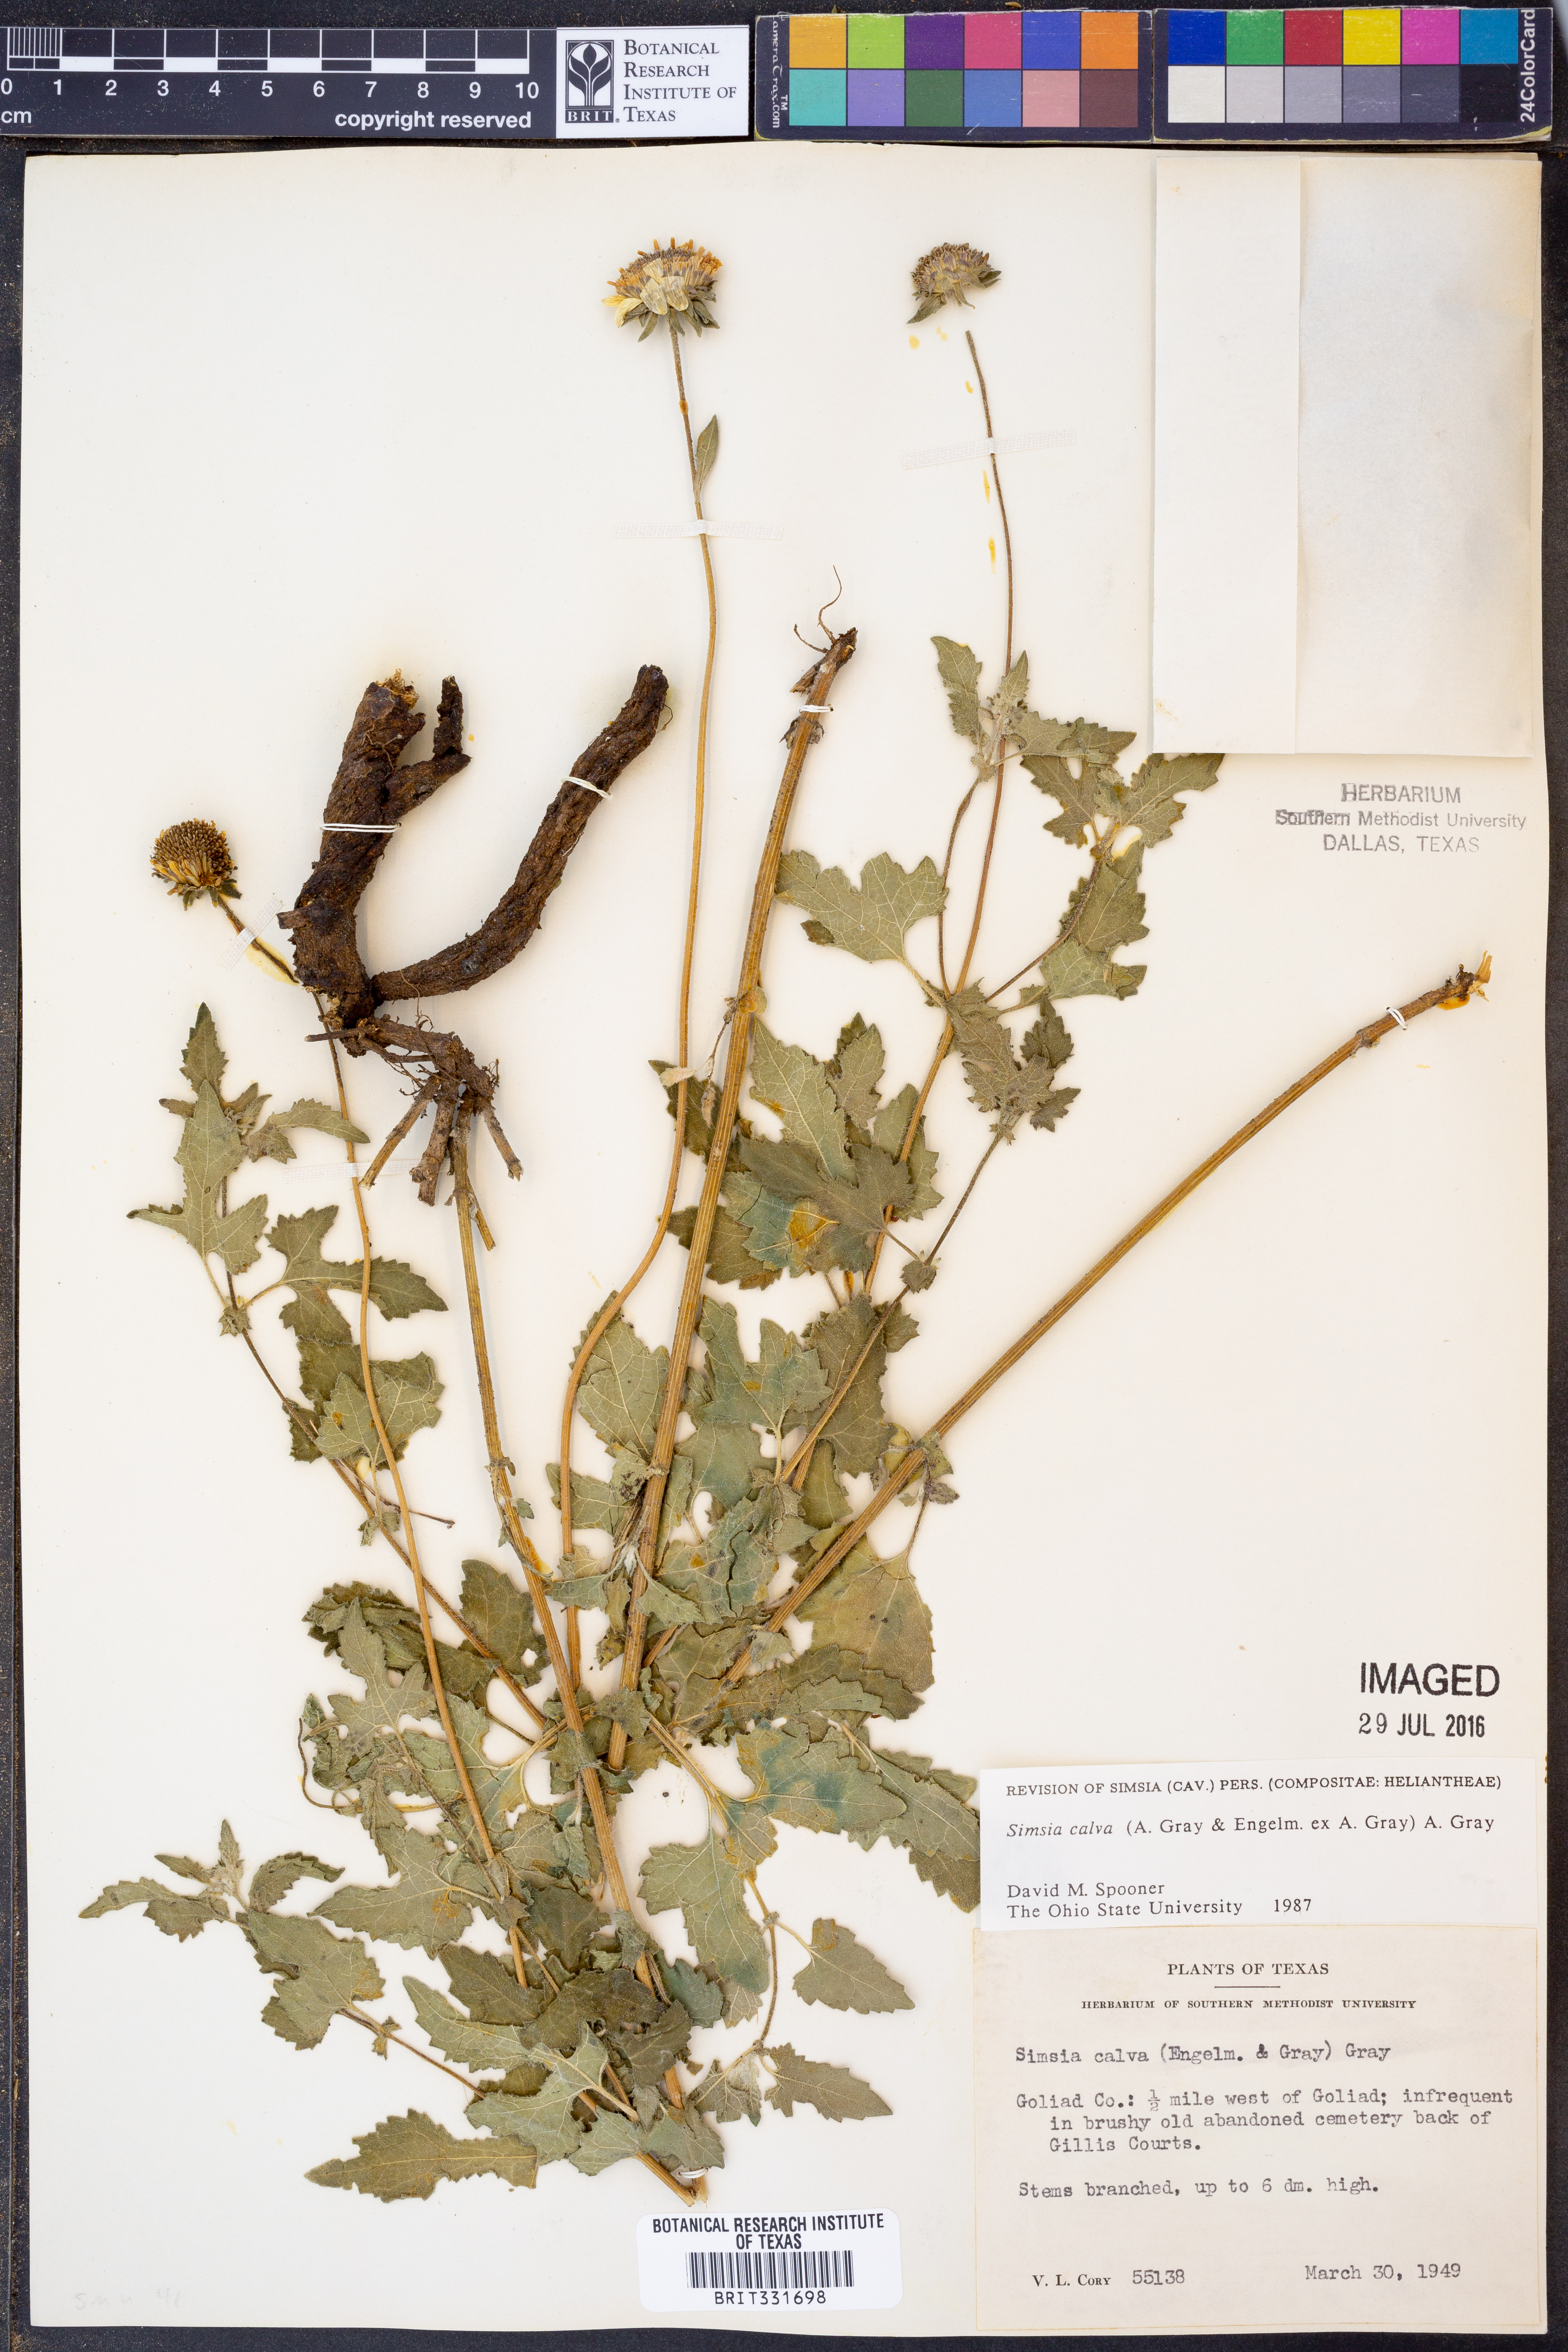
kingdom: Plantae
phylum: Tracheophyta
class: Magnoliopsida
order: Asterales
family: Asteraceae
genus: Simsia
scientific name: Simsia calva
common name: Awnless bush-sunflower
